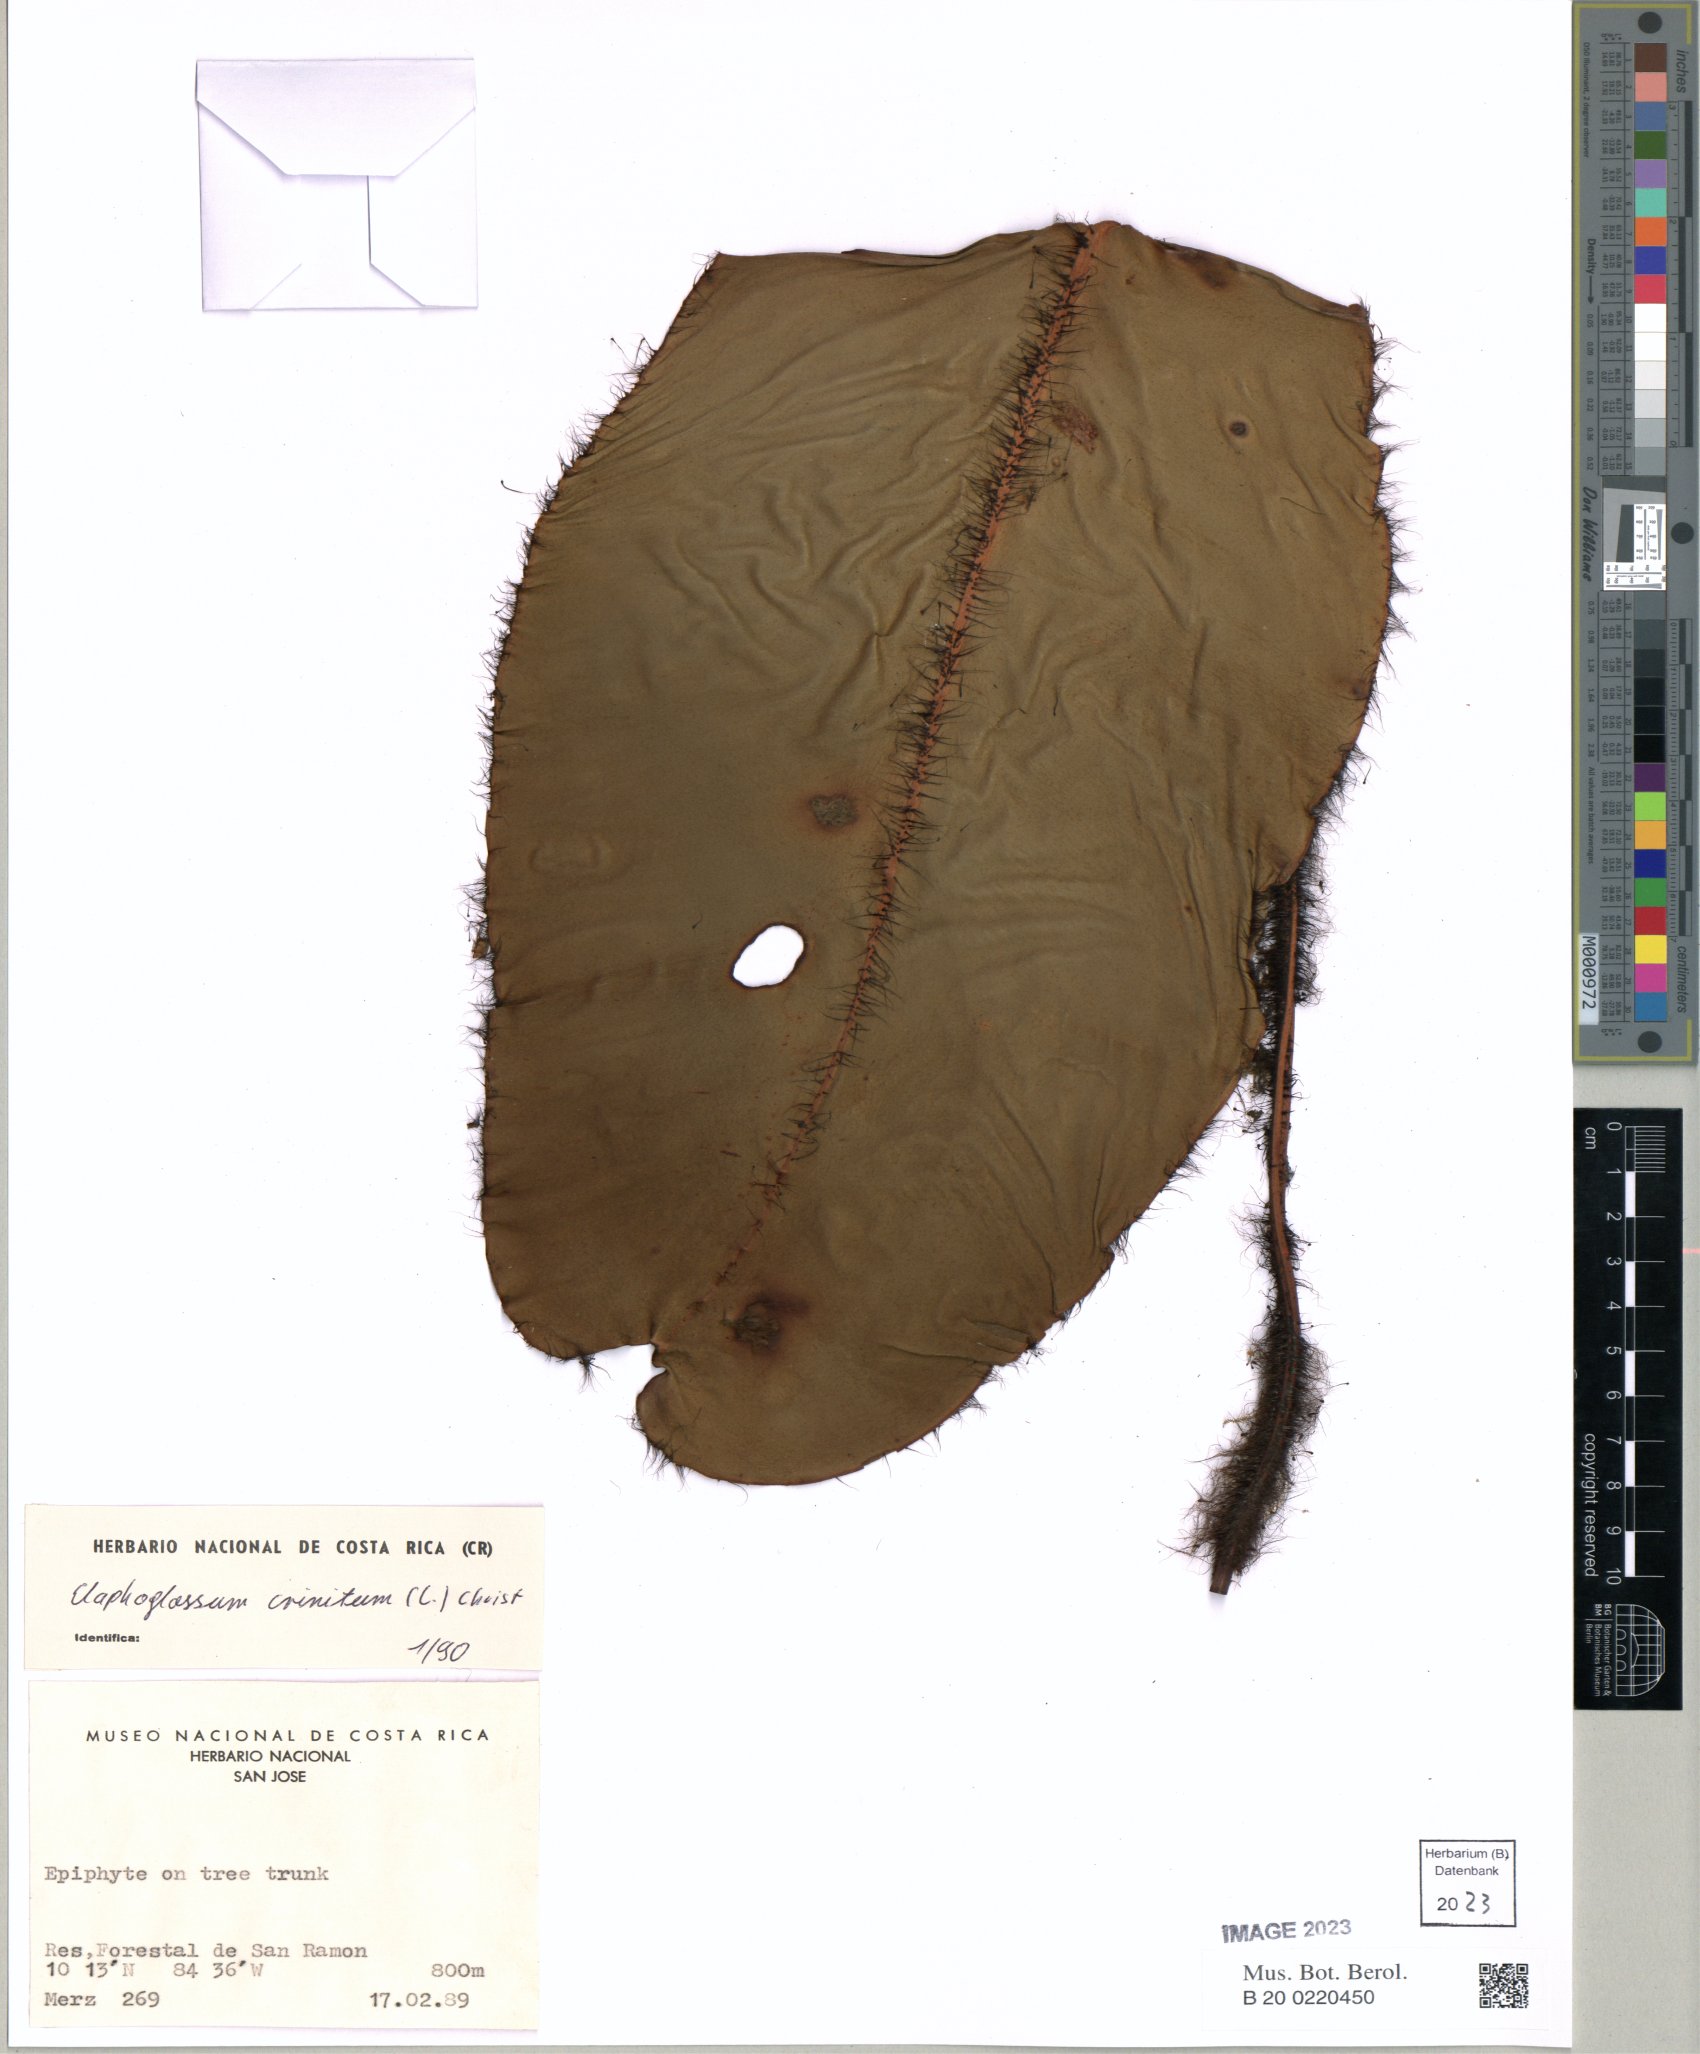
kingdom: Plantae
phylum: Tracheophyta
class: Polypodiopsida
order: Polypodiales
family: Dryopteridaceae
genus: Elaphoglossum
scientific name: Elaphoglossum crinitum
